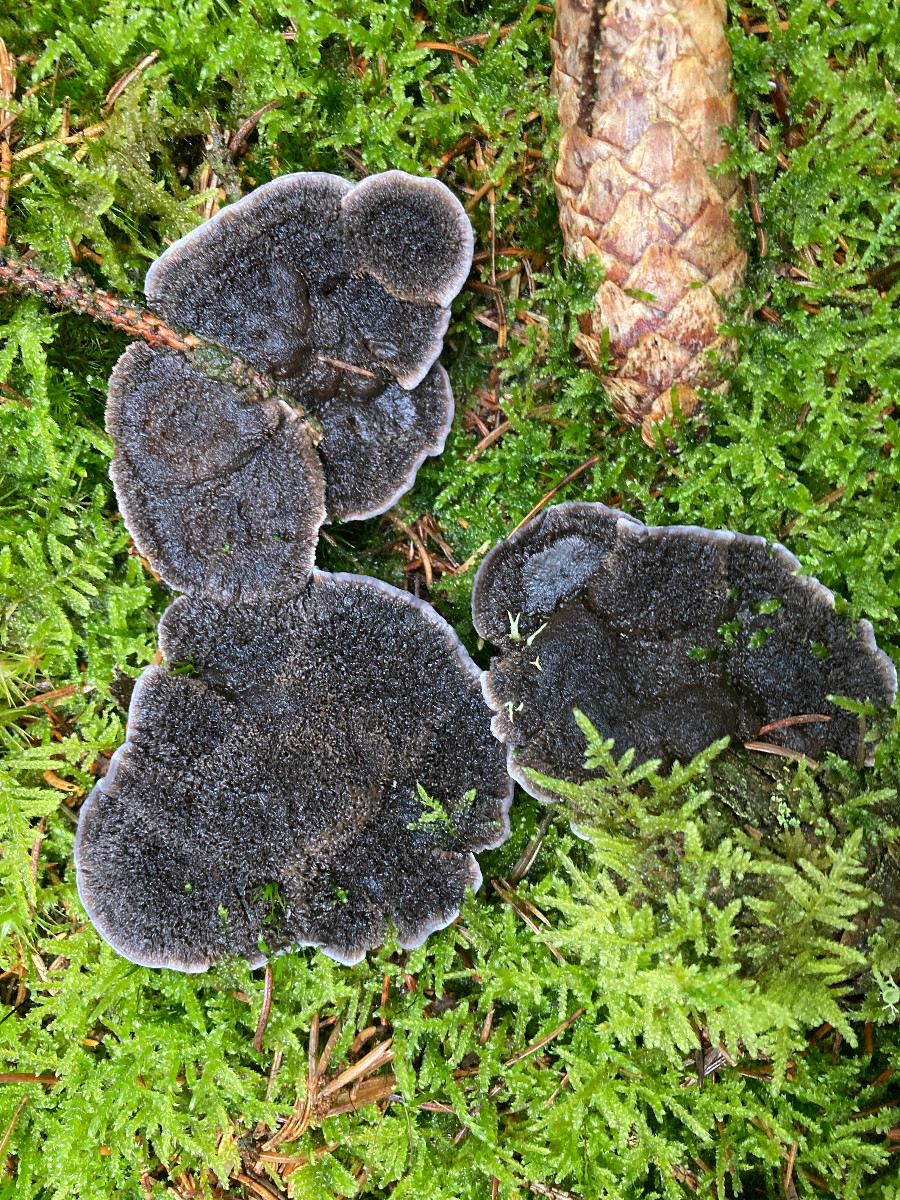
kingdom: Fungi
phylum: Basidiomycota
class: Agaricomycetes
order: Thelephorales
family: Thelephoraceae
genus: Phellodon
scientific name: Phellodon
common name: mørk duftpigsvamp
